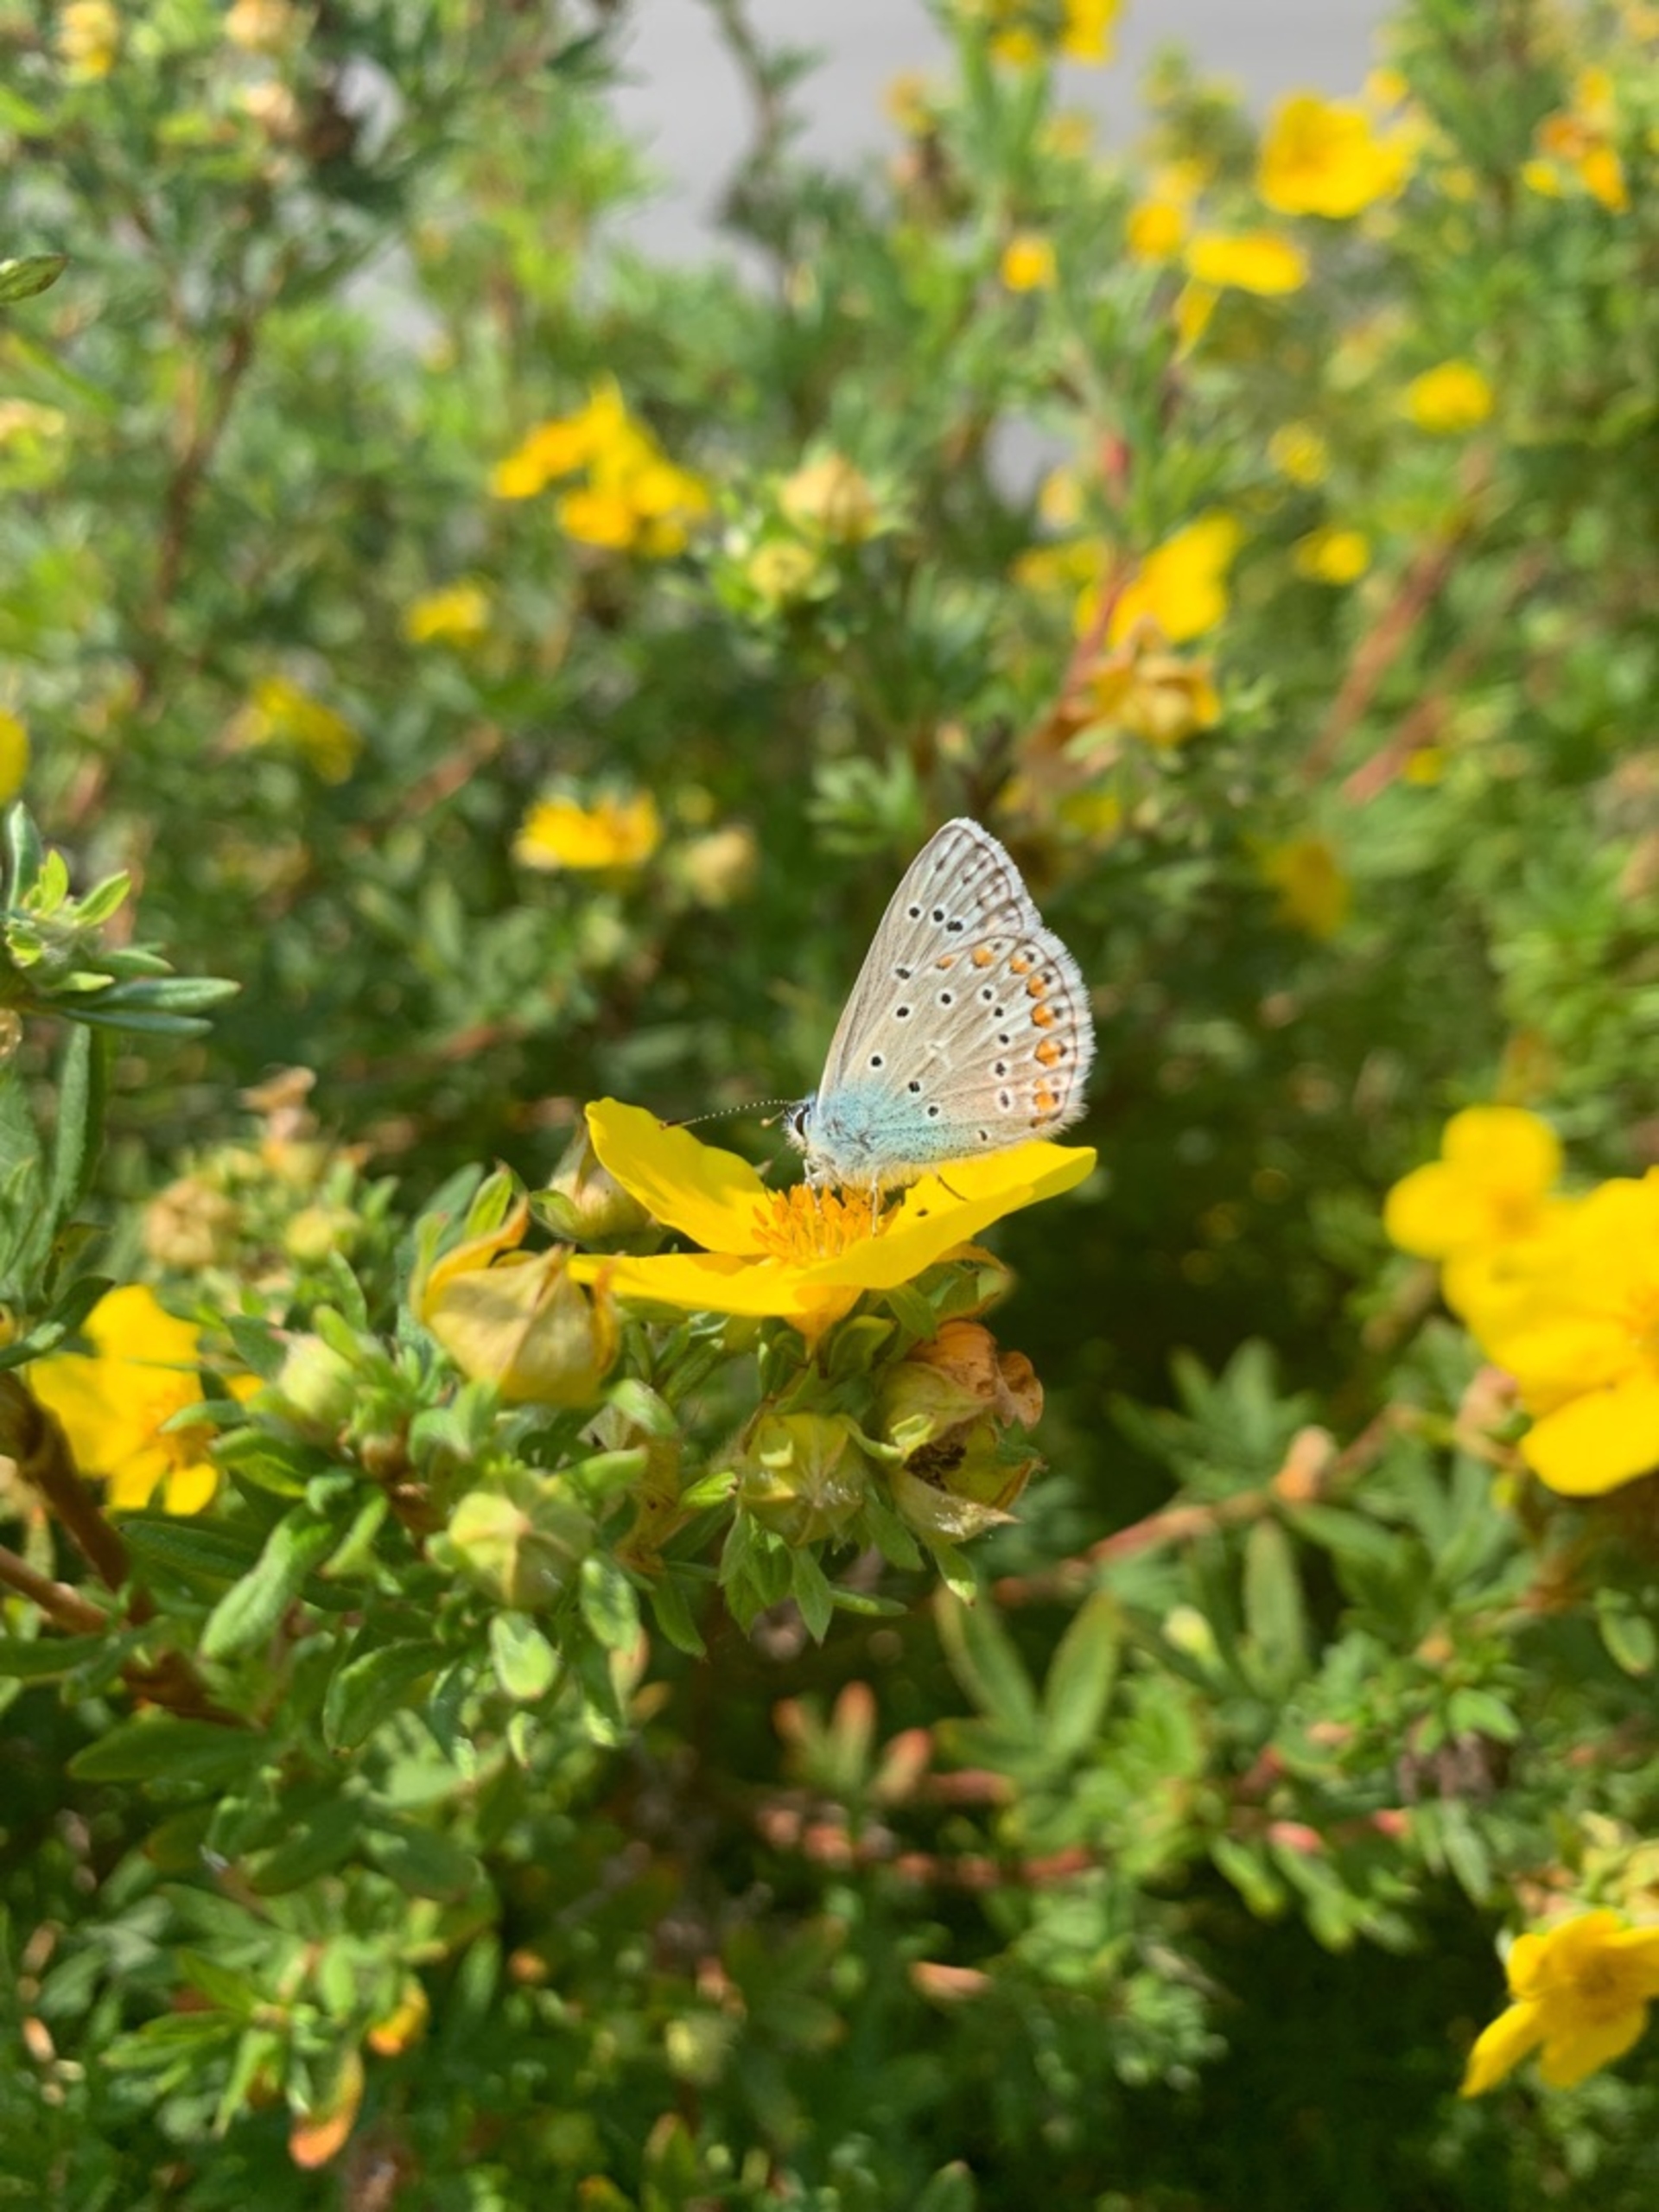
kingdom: Animalia
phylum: Arthropoda
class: Insecta
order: Lepidoptera
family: Lycaenidae
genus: Polyommatus
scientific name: Polyommatus icarus
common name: Almindelig blåfugl
